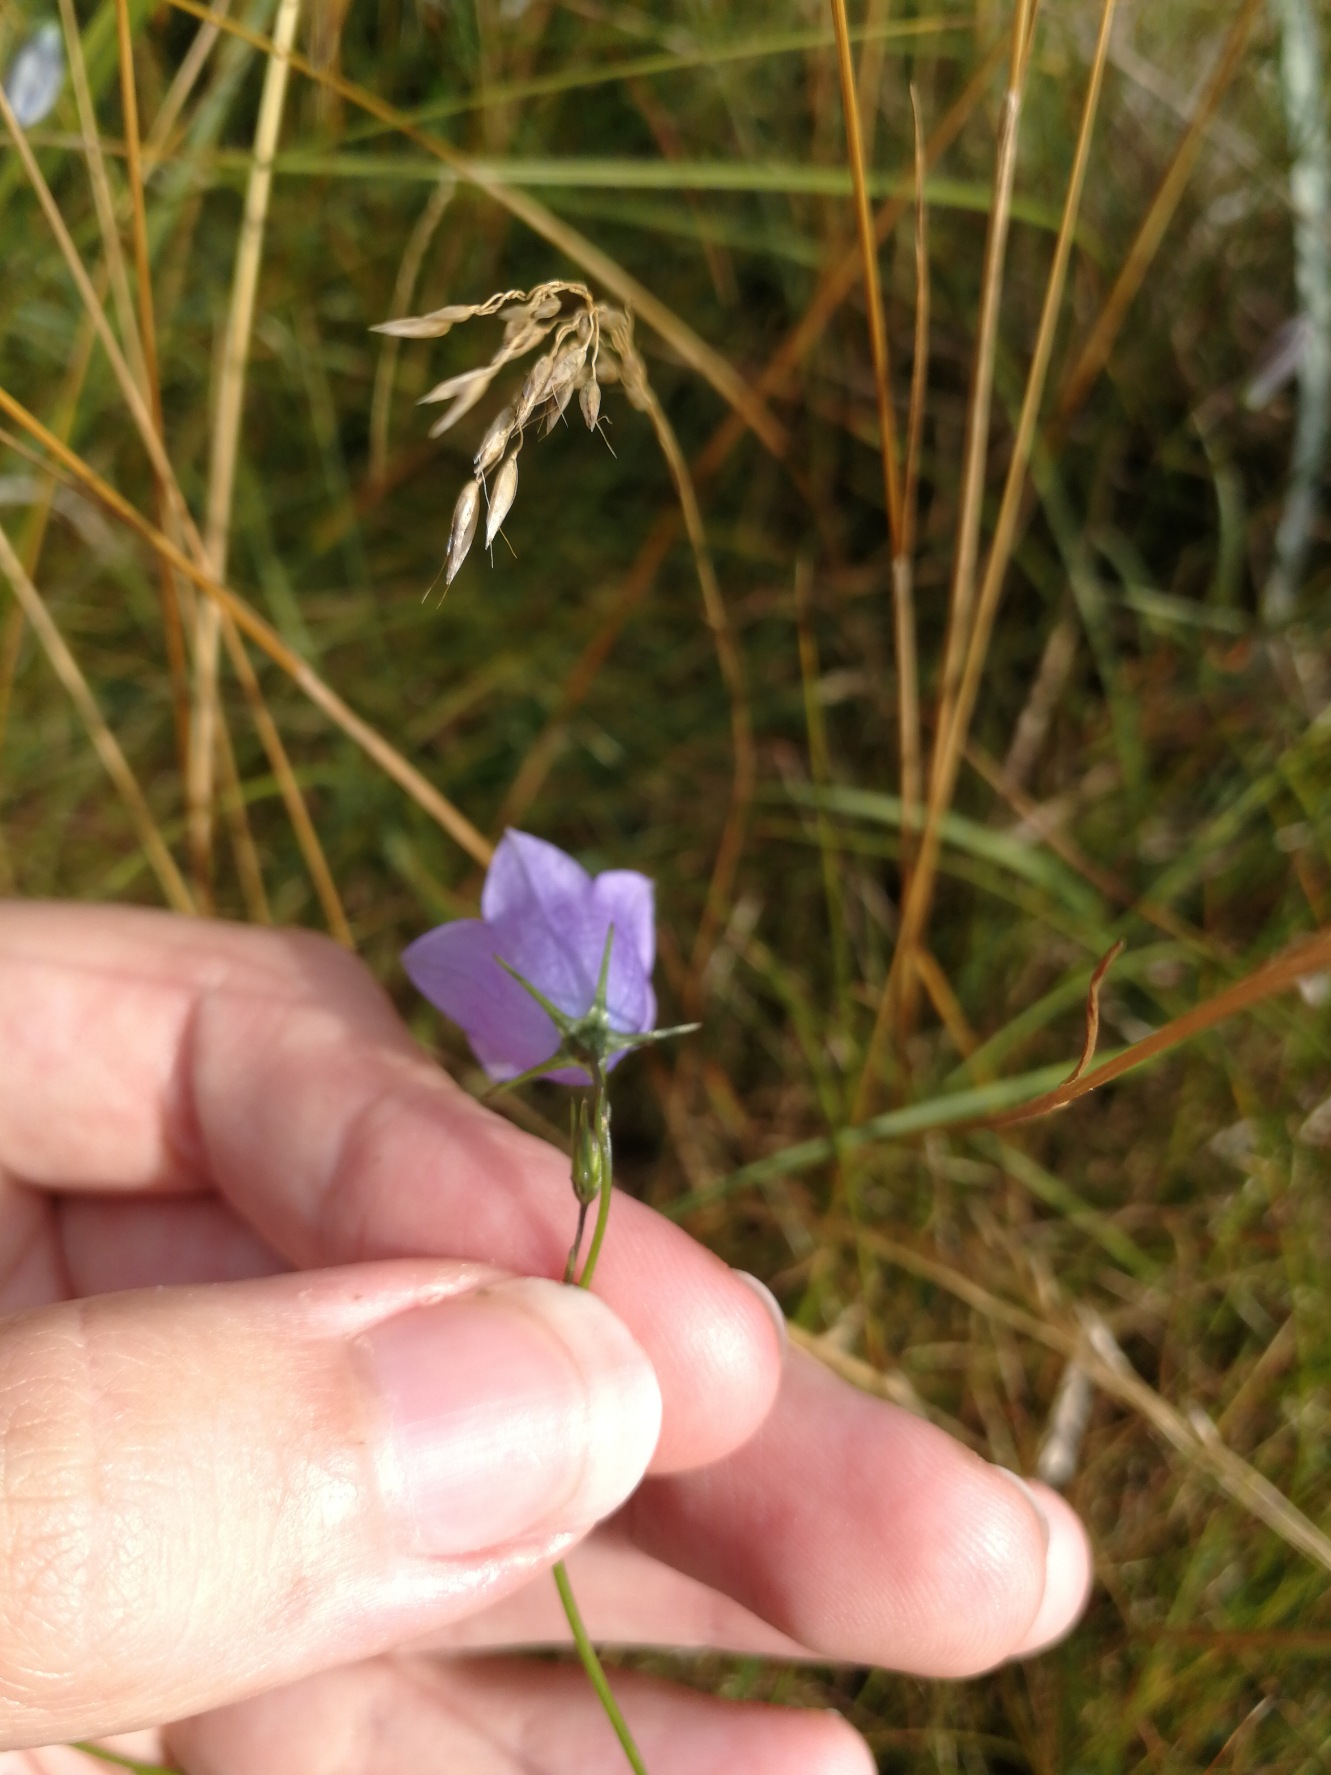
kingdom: Plantae
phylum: Tracheophyta
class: Magnoliopsida
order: Asterales
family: Campanulaceae
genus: Campanula
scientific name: Campanula rotundifolia
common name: Liden klokke
